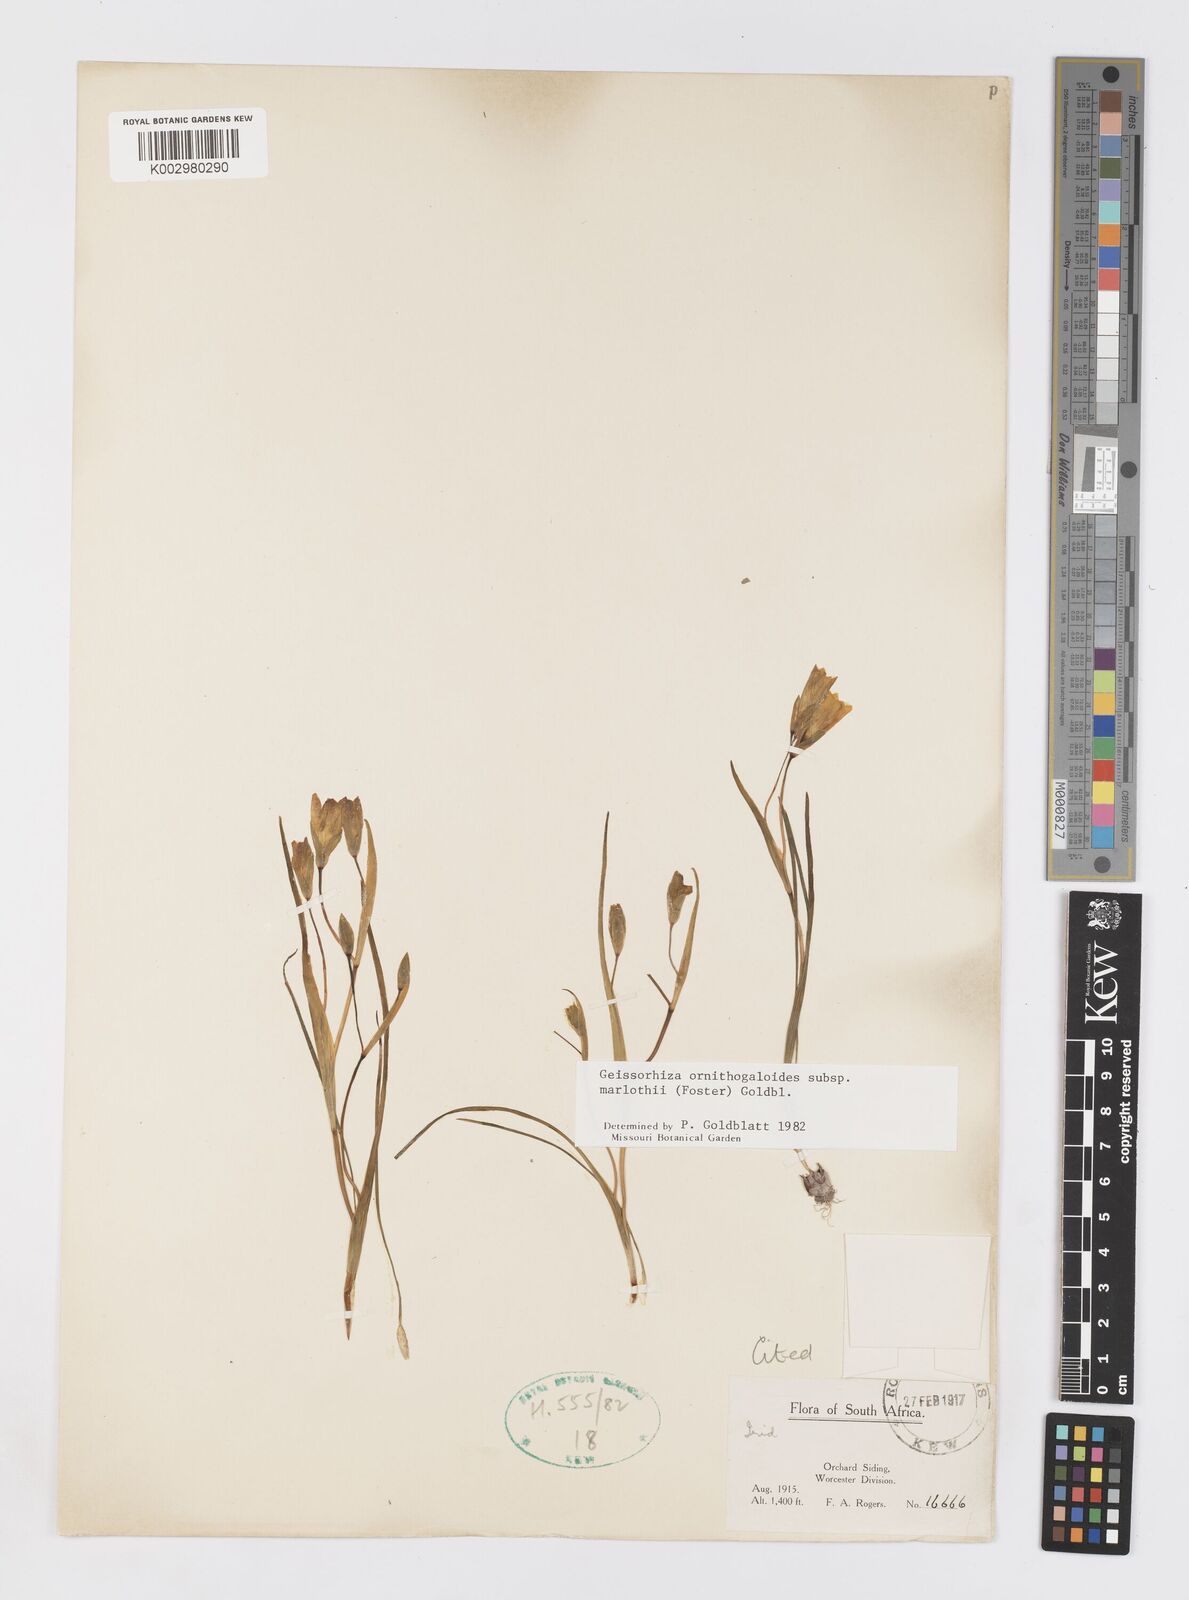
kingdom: Plantae
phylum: Tracheophyta
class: Liliopsida
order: Asparagales
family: Iridaceae
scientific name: Iridaceae
